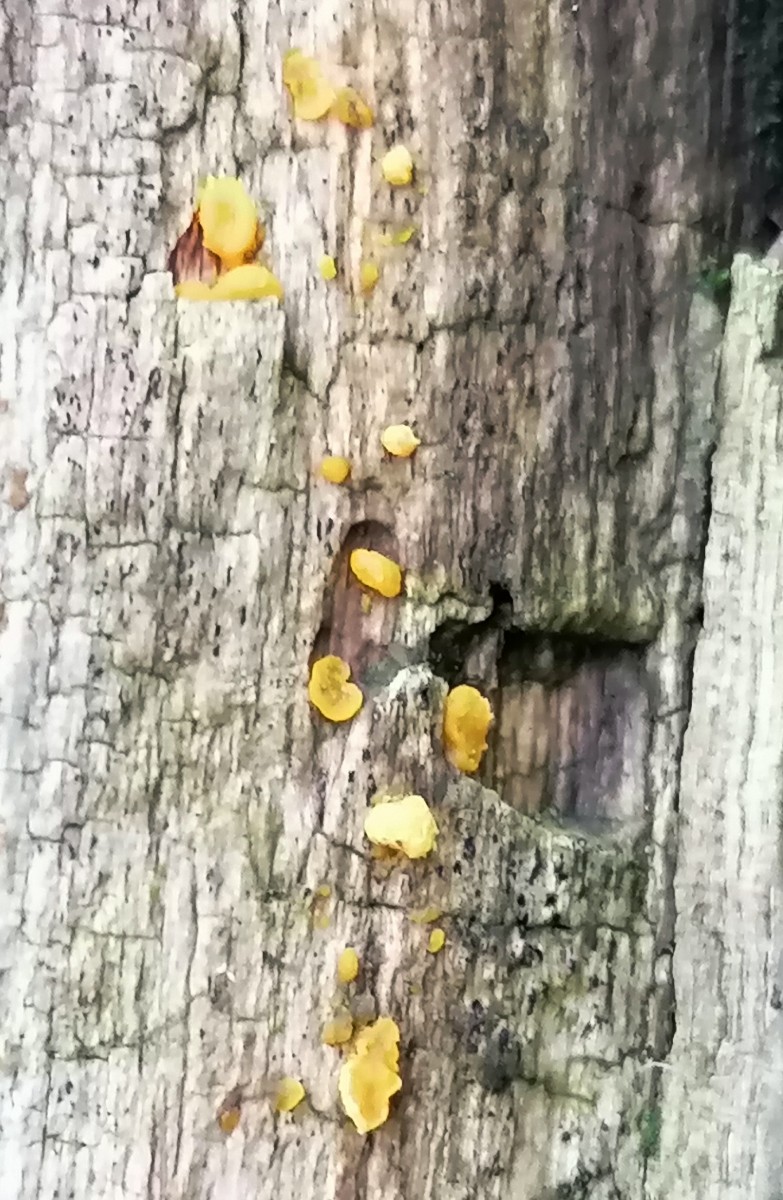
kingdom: Fungi
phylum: Basidiomycota
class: Dacrymycetes
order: Dacrymycetales
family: Dacrymycetaceae
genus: Dacrymyces
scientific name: Dacrymyces lacrymalis
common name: rynket tåresvamp
